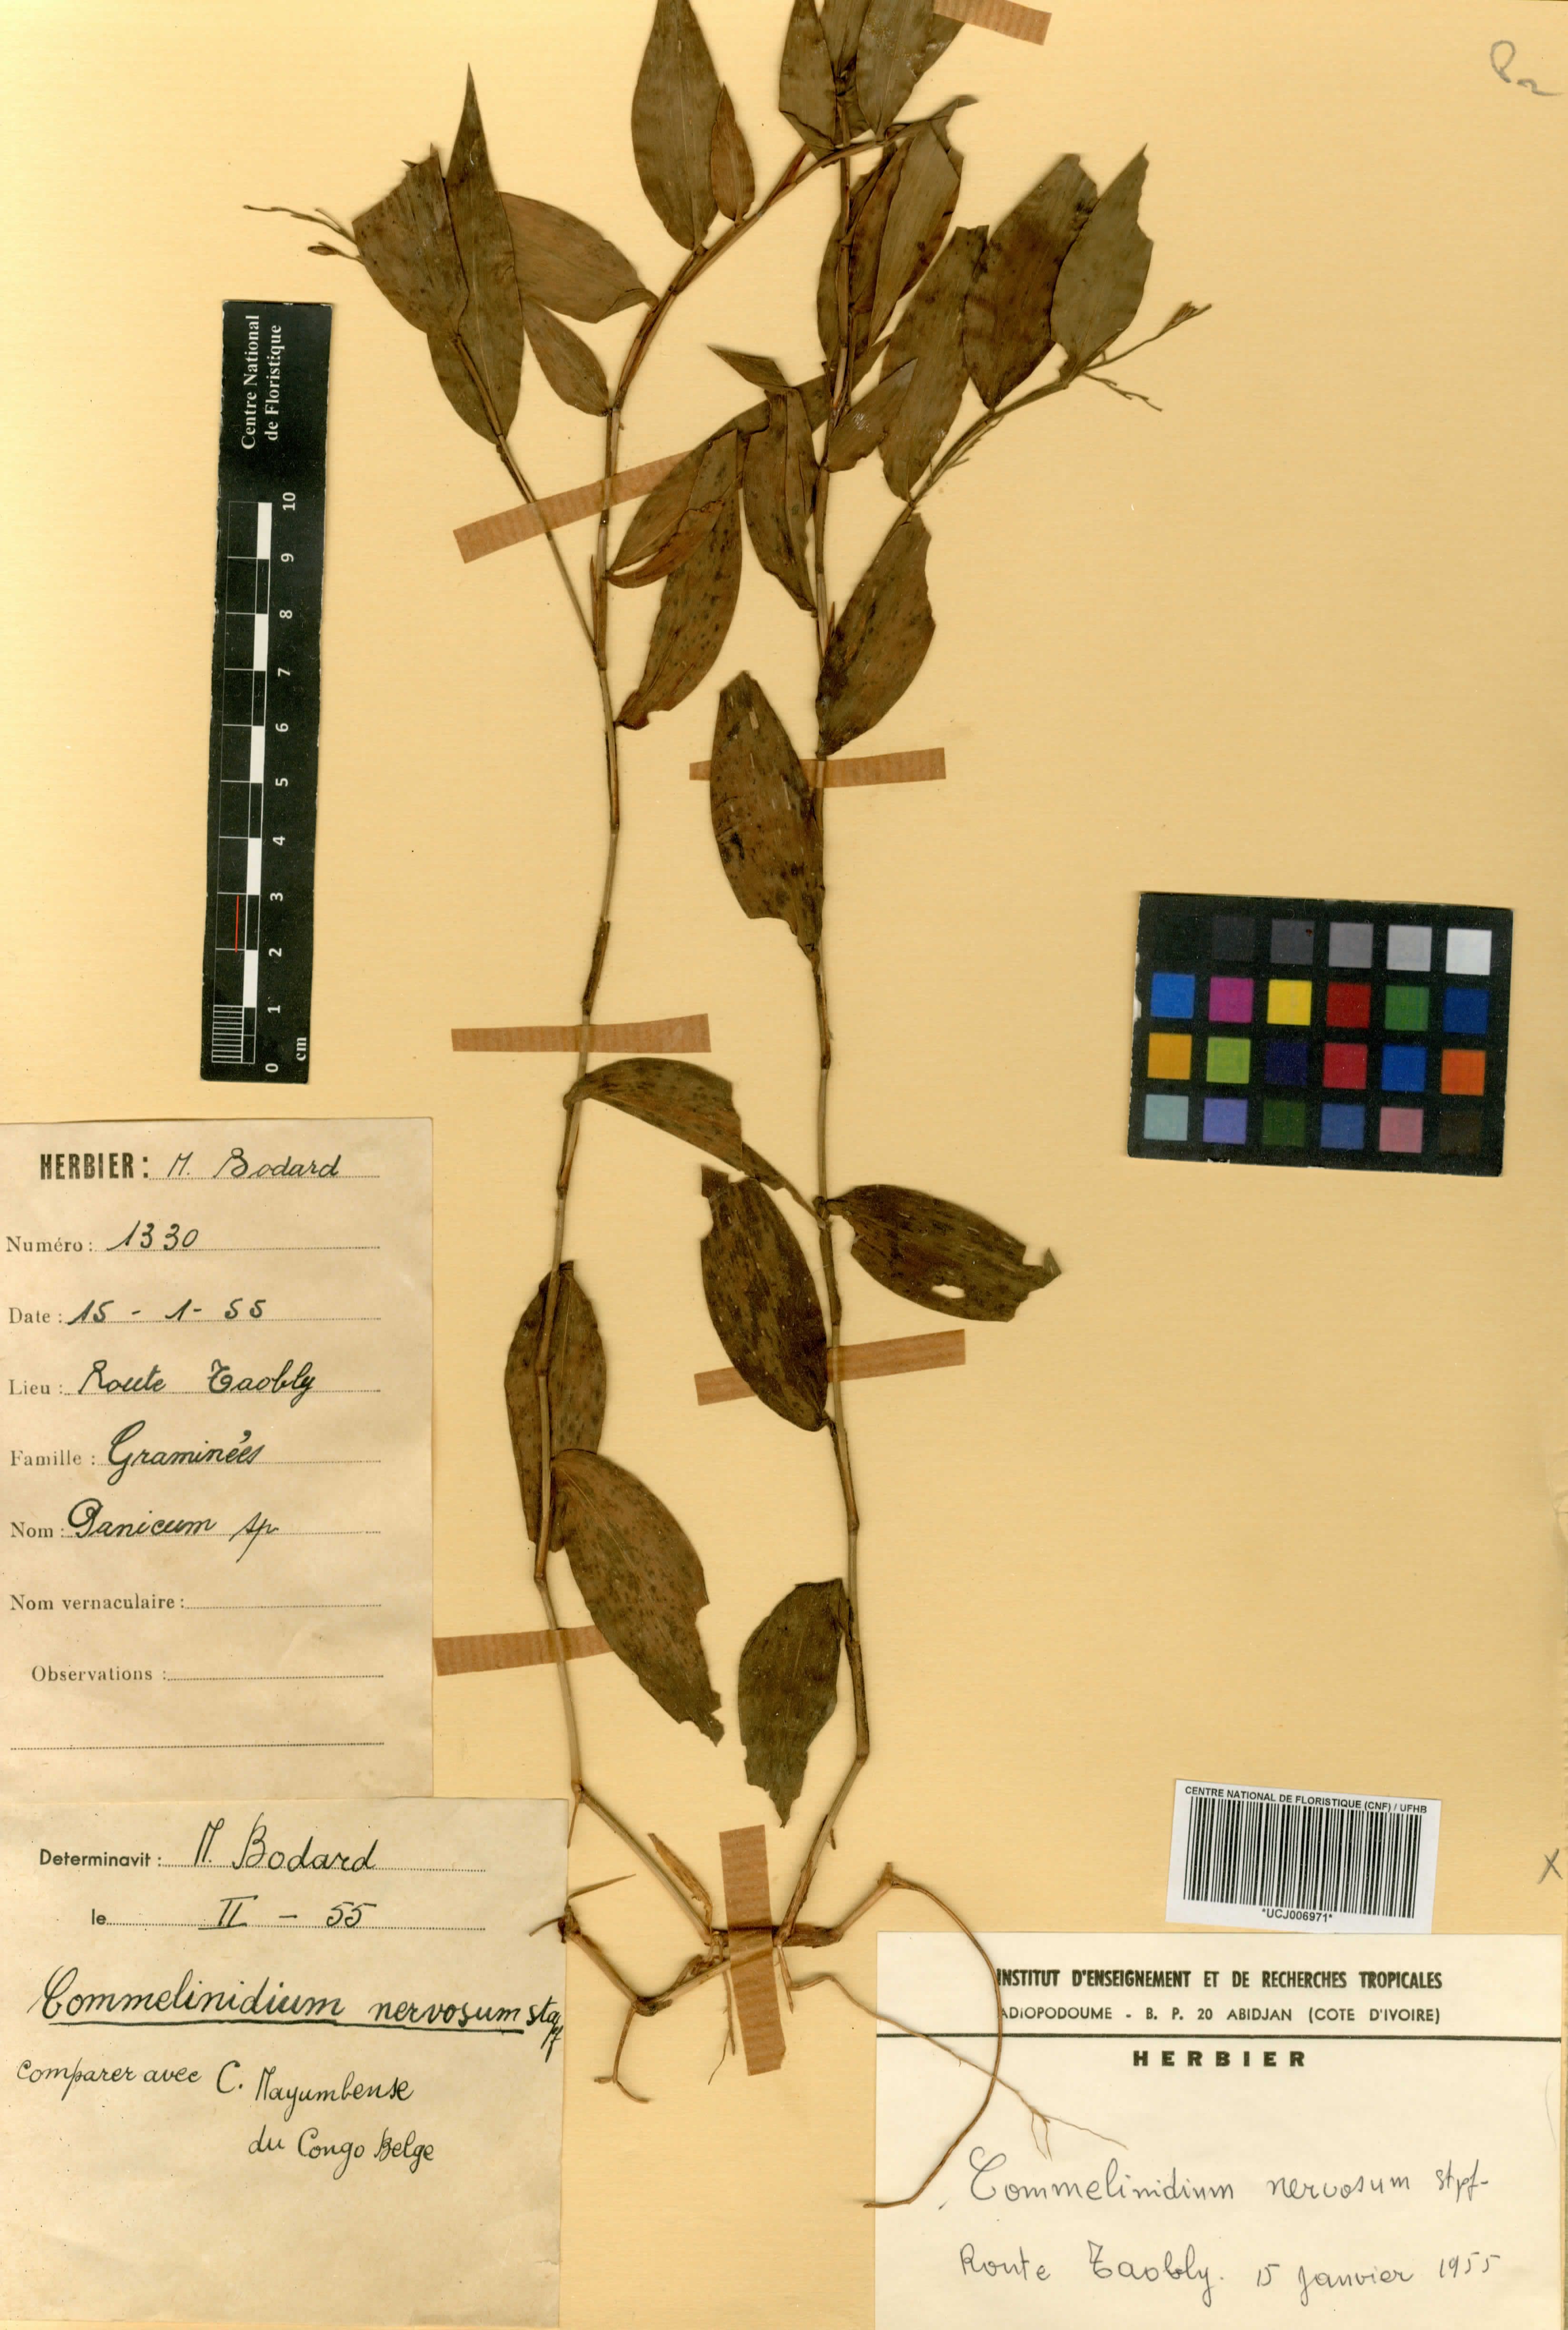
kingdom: Plantae
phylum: Tracheophyta
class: Liliopsida
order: Poales
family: Poaceae
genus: Acroceras
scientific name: Acroceras gabunense
